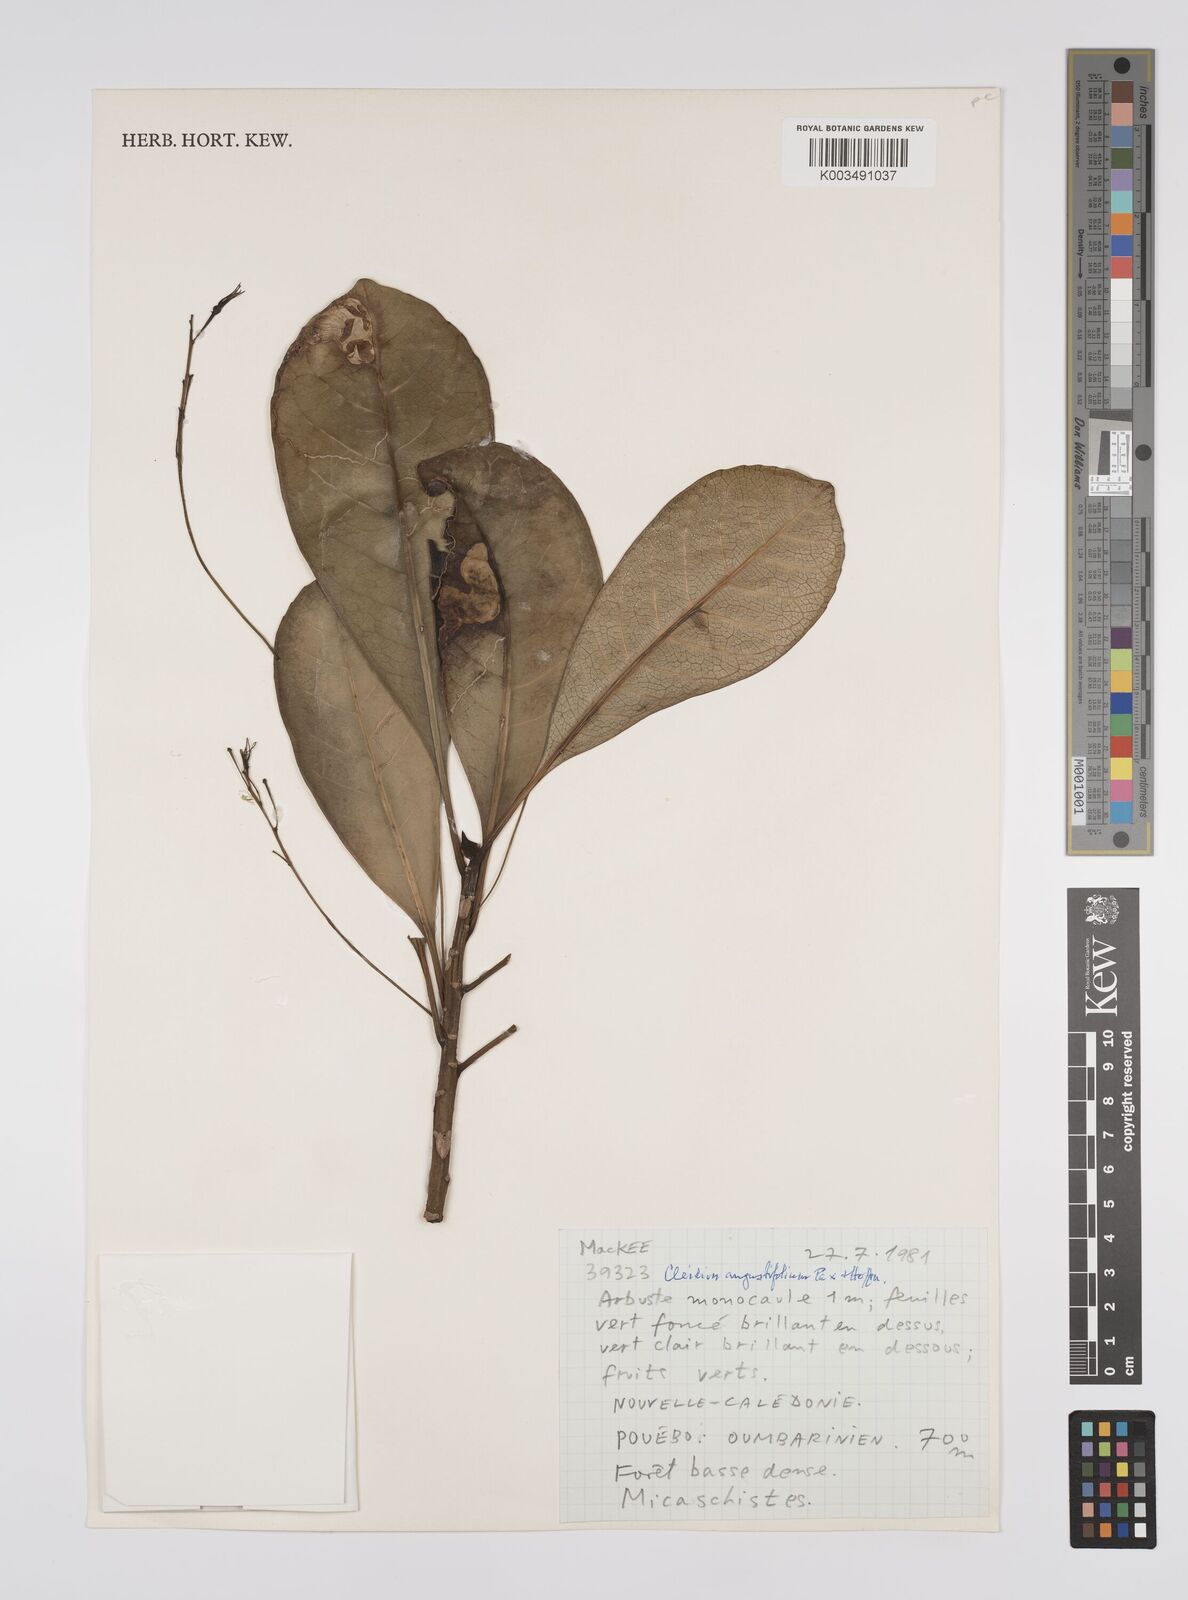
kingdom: Plantae
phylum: Tracheophyta
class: Magnoliopsida
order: Malpighiales
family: Euphorbiaceae
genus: Cleidion
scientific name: Cleidion vieillardii
